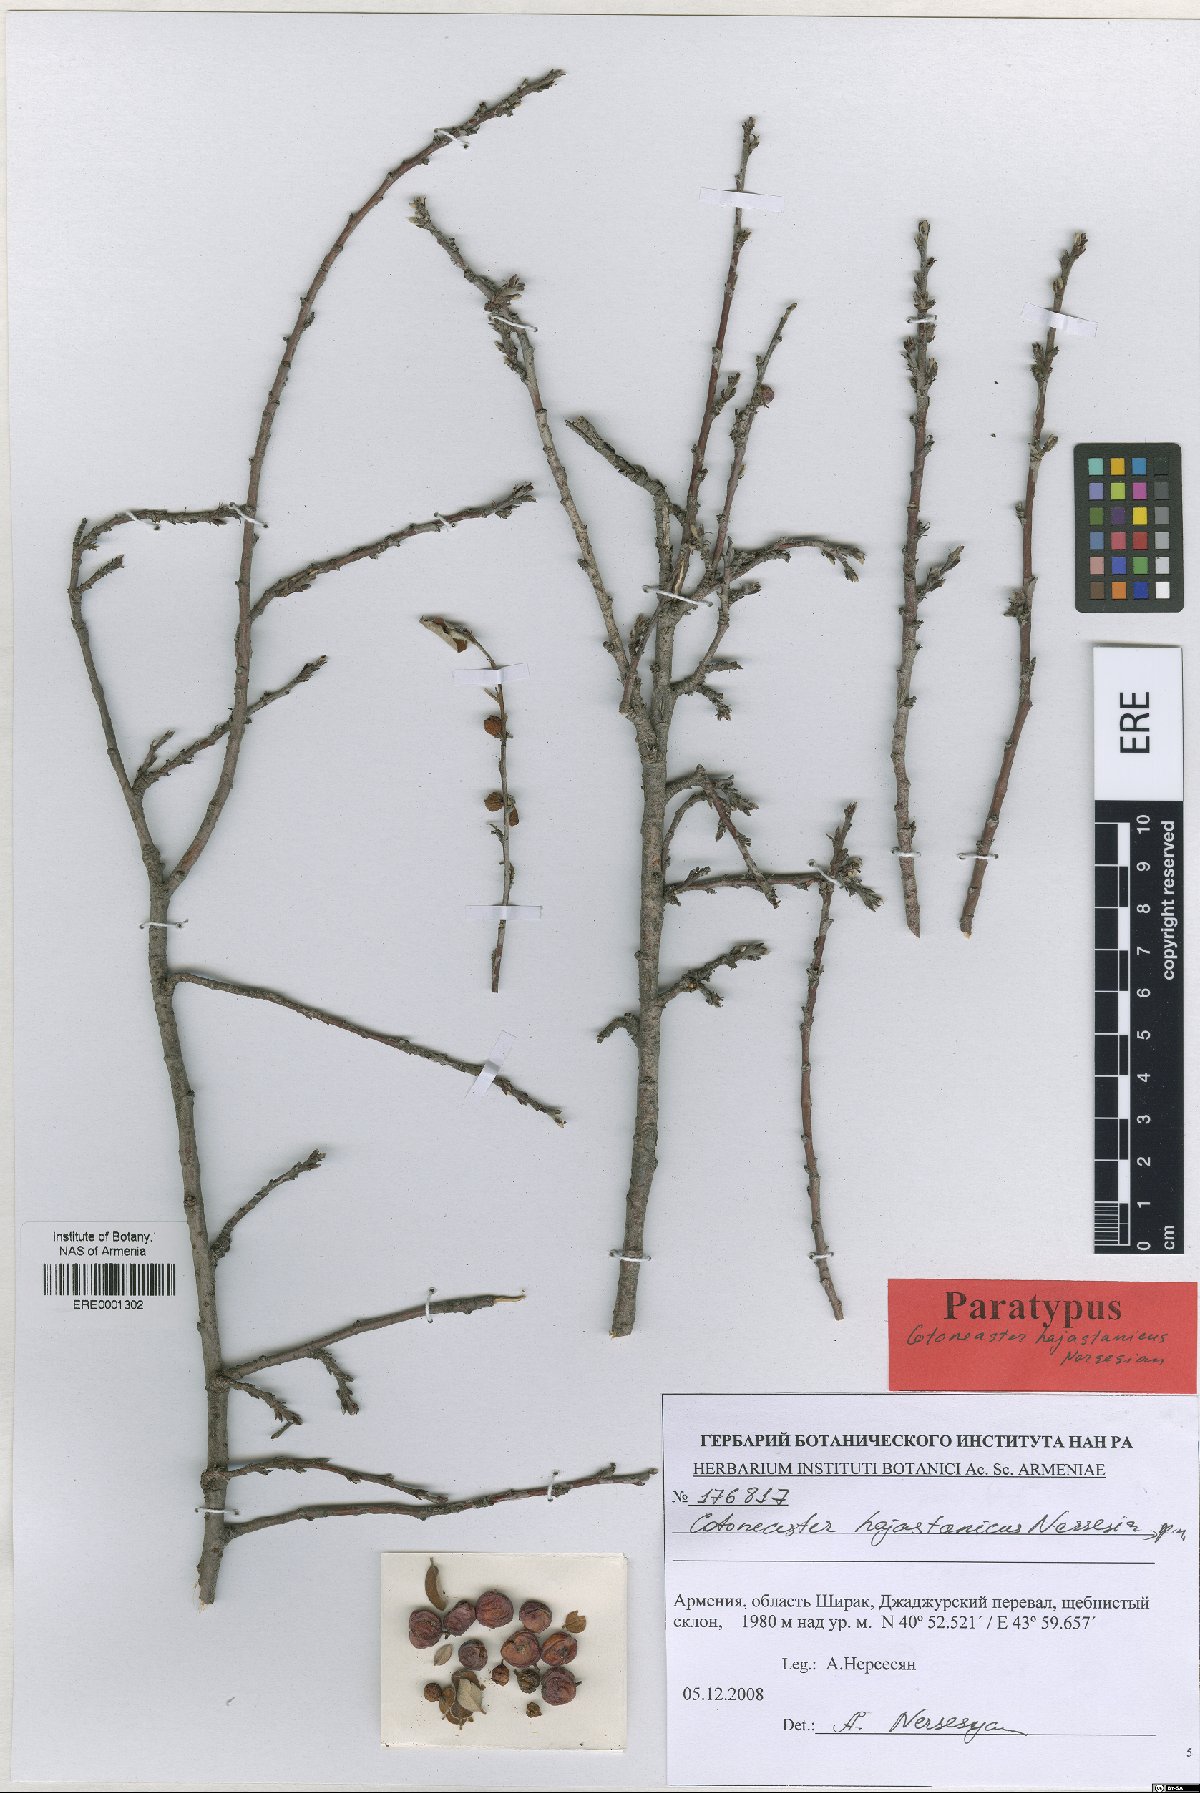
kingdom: Plantae
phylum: Tracheophyta
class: Magnoliopsida
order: Rosales
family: Rosaceae
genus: Cotoneaster
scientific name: Cotoneaster hajastanicus
